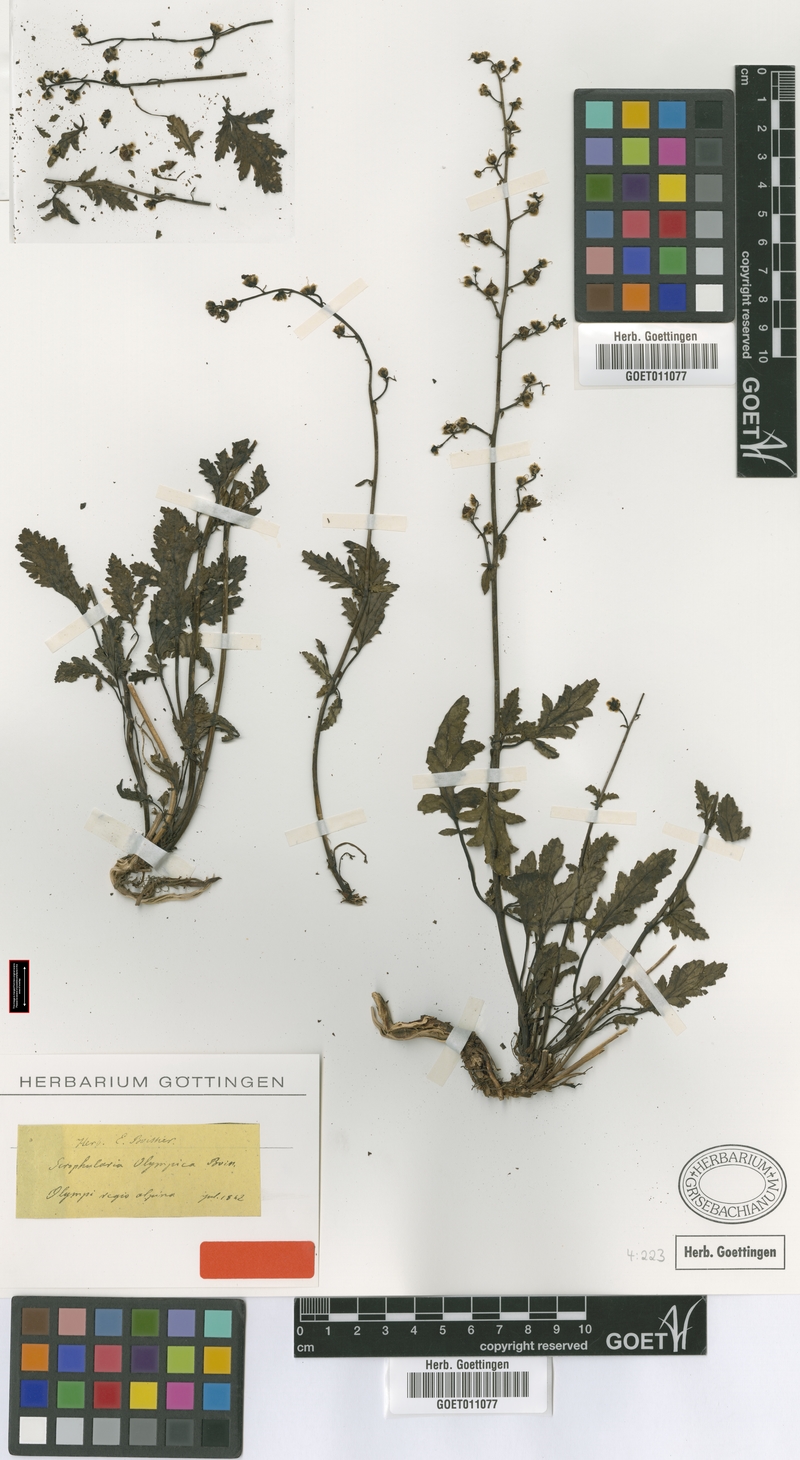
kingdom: Plantae
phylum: Tracheophyta
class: Magnoliopsida
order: Lamiales
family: Scrophulariaceae
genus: Scrophularia
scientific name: Scrophularia olympica
